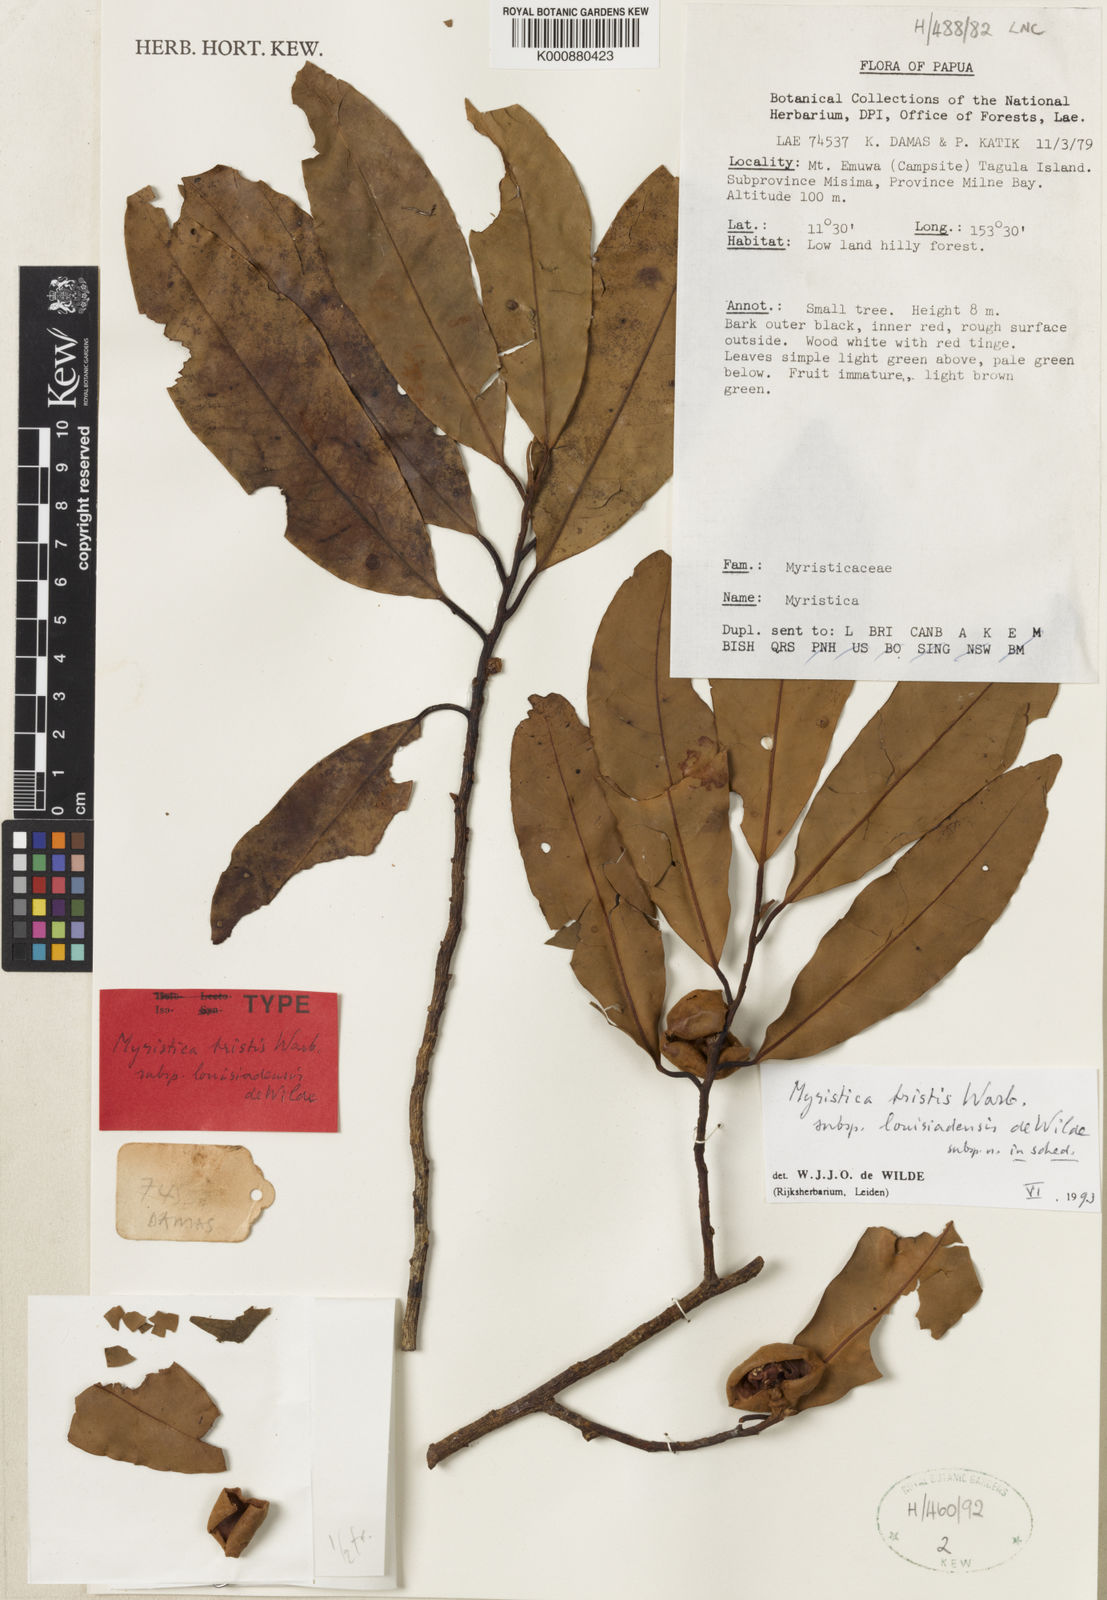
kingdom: Plantae
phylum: Tracheophyta
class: Magnoliopsida
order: Magnoliales
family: Myristicaceae
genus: Myristica
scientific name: Myristica tristis
